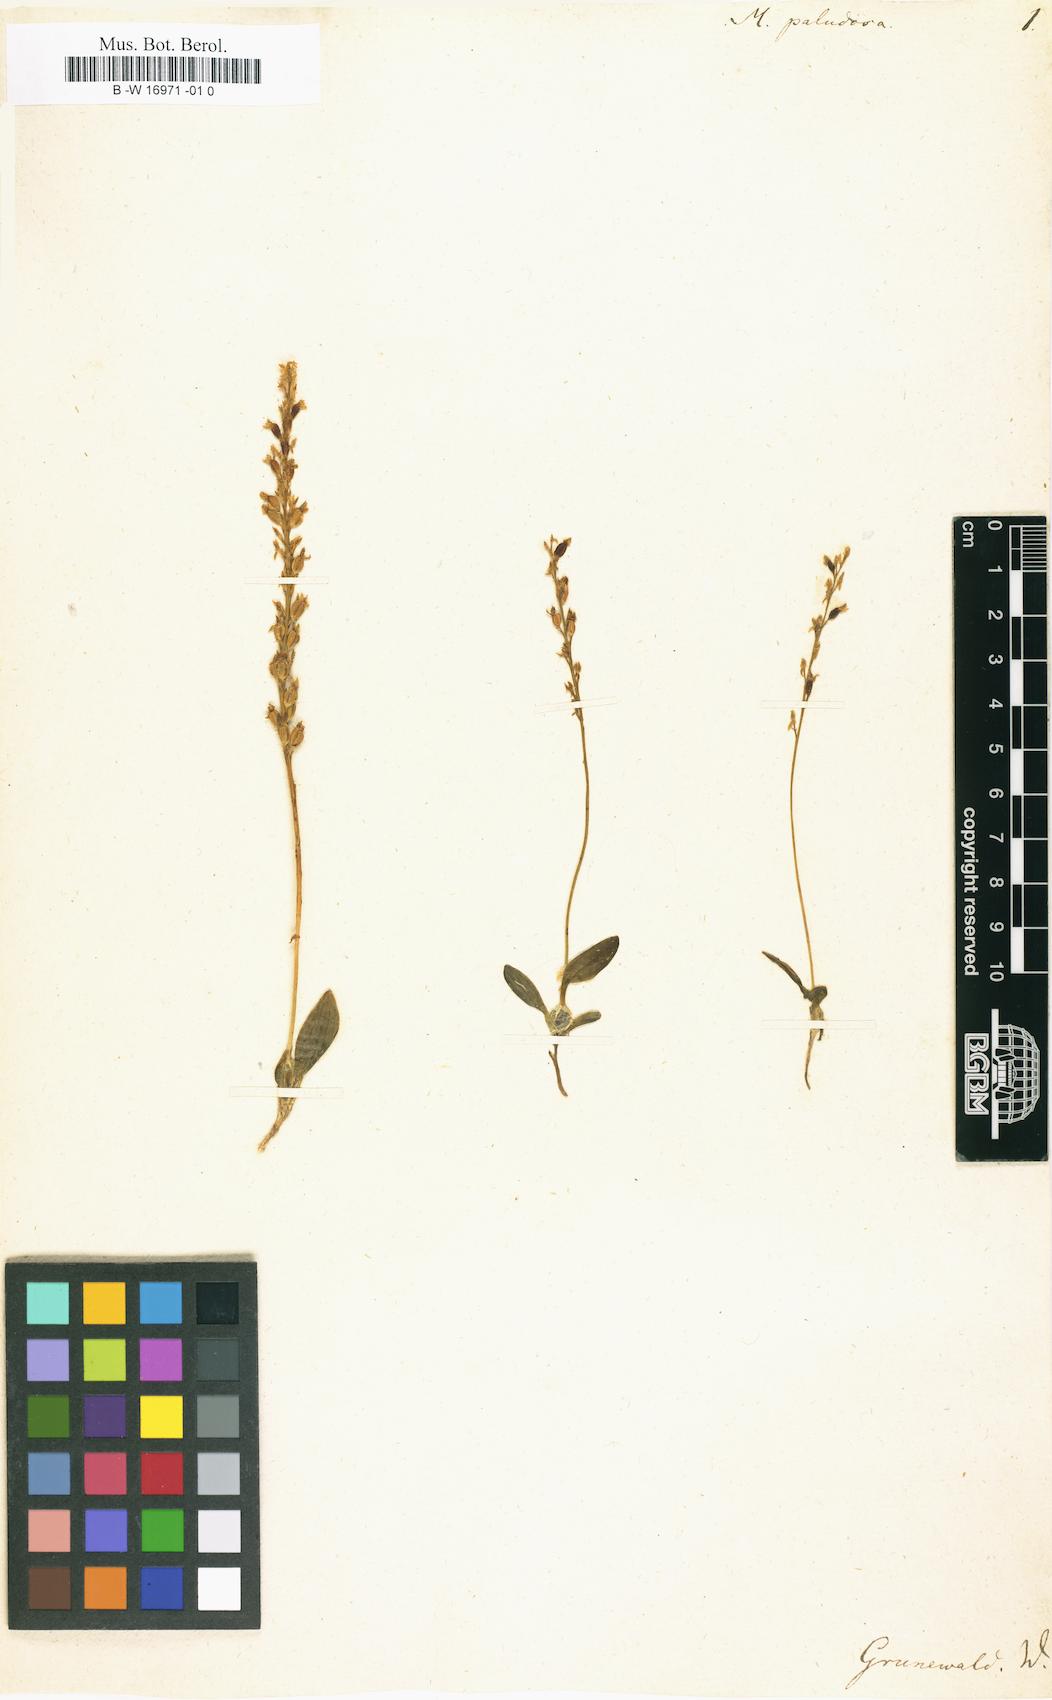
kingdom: Plantae
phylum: Tracheophyta
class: Liliopsida
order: Asparagales
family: Orchidaceae
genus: Hammarbya
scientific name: Hammarbya paludosa
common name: Bog orchid
